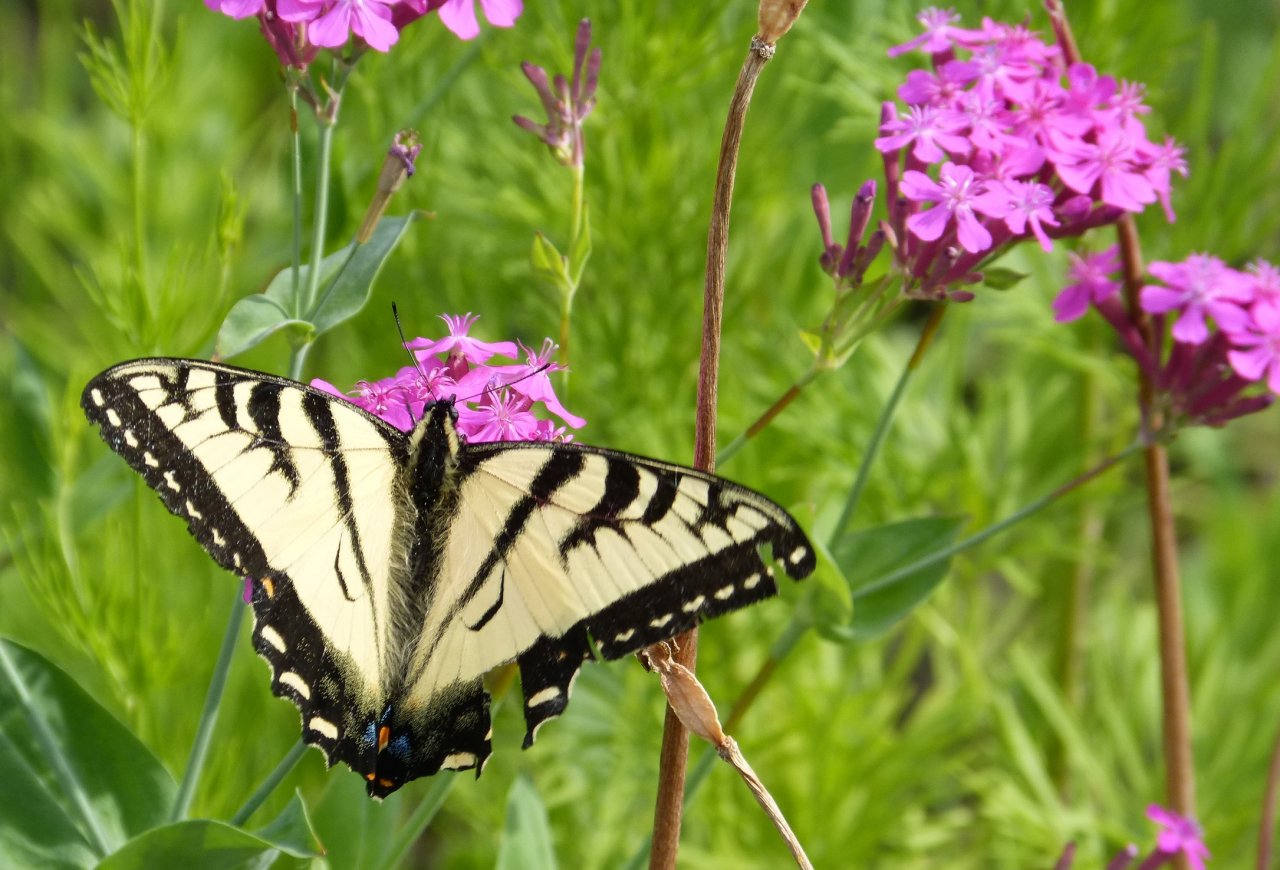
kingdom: Animalia
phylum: Arthropoda
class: Insecta
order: Lepidoptera
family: Papilionidae
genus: Pterourus
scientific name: Pterourus canadensis
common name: Canadian Tiger Swallowtail
